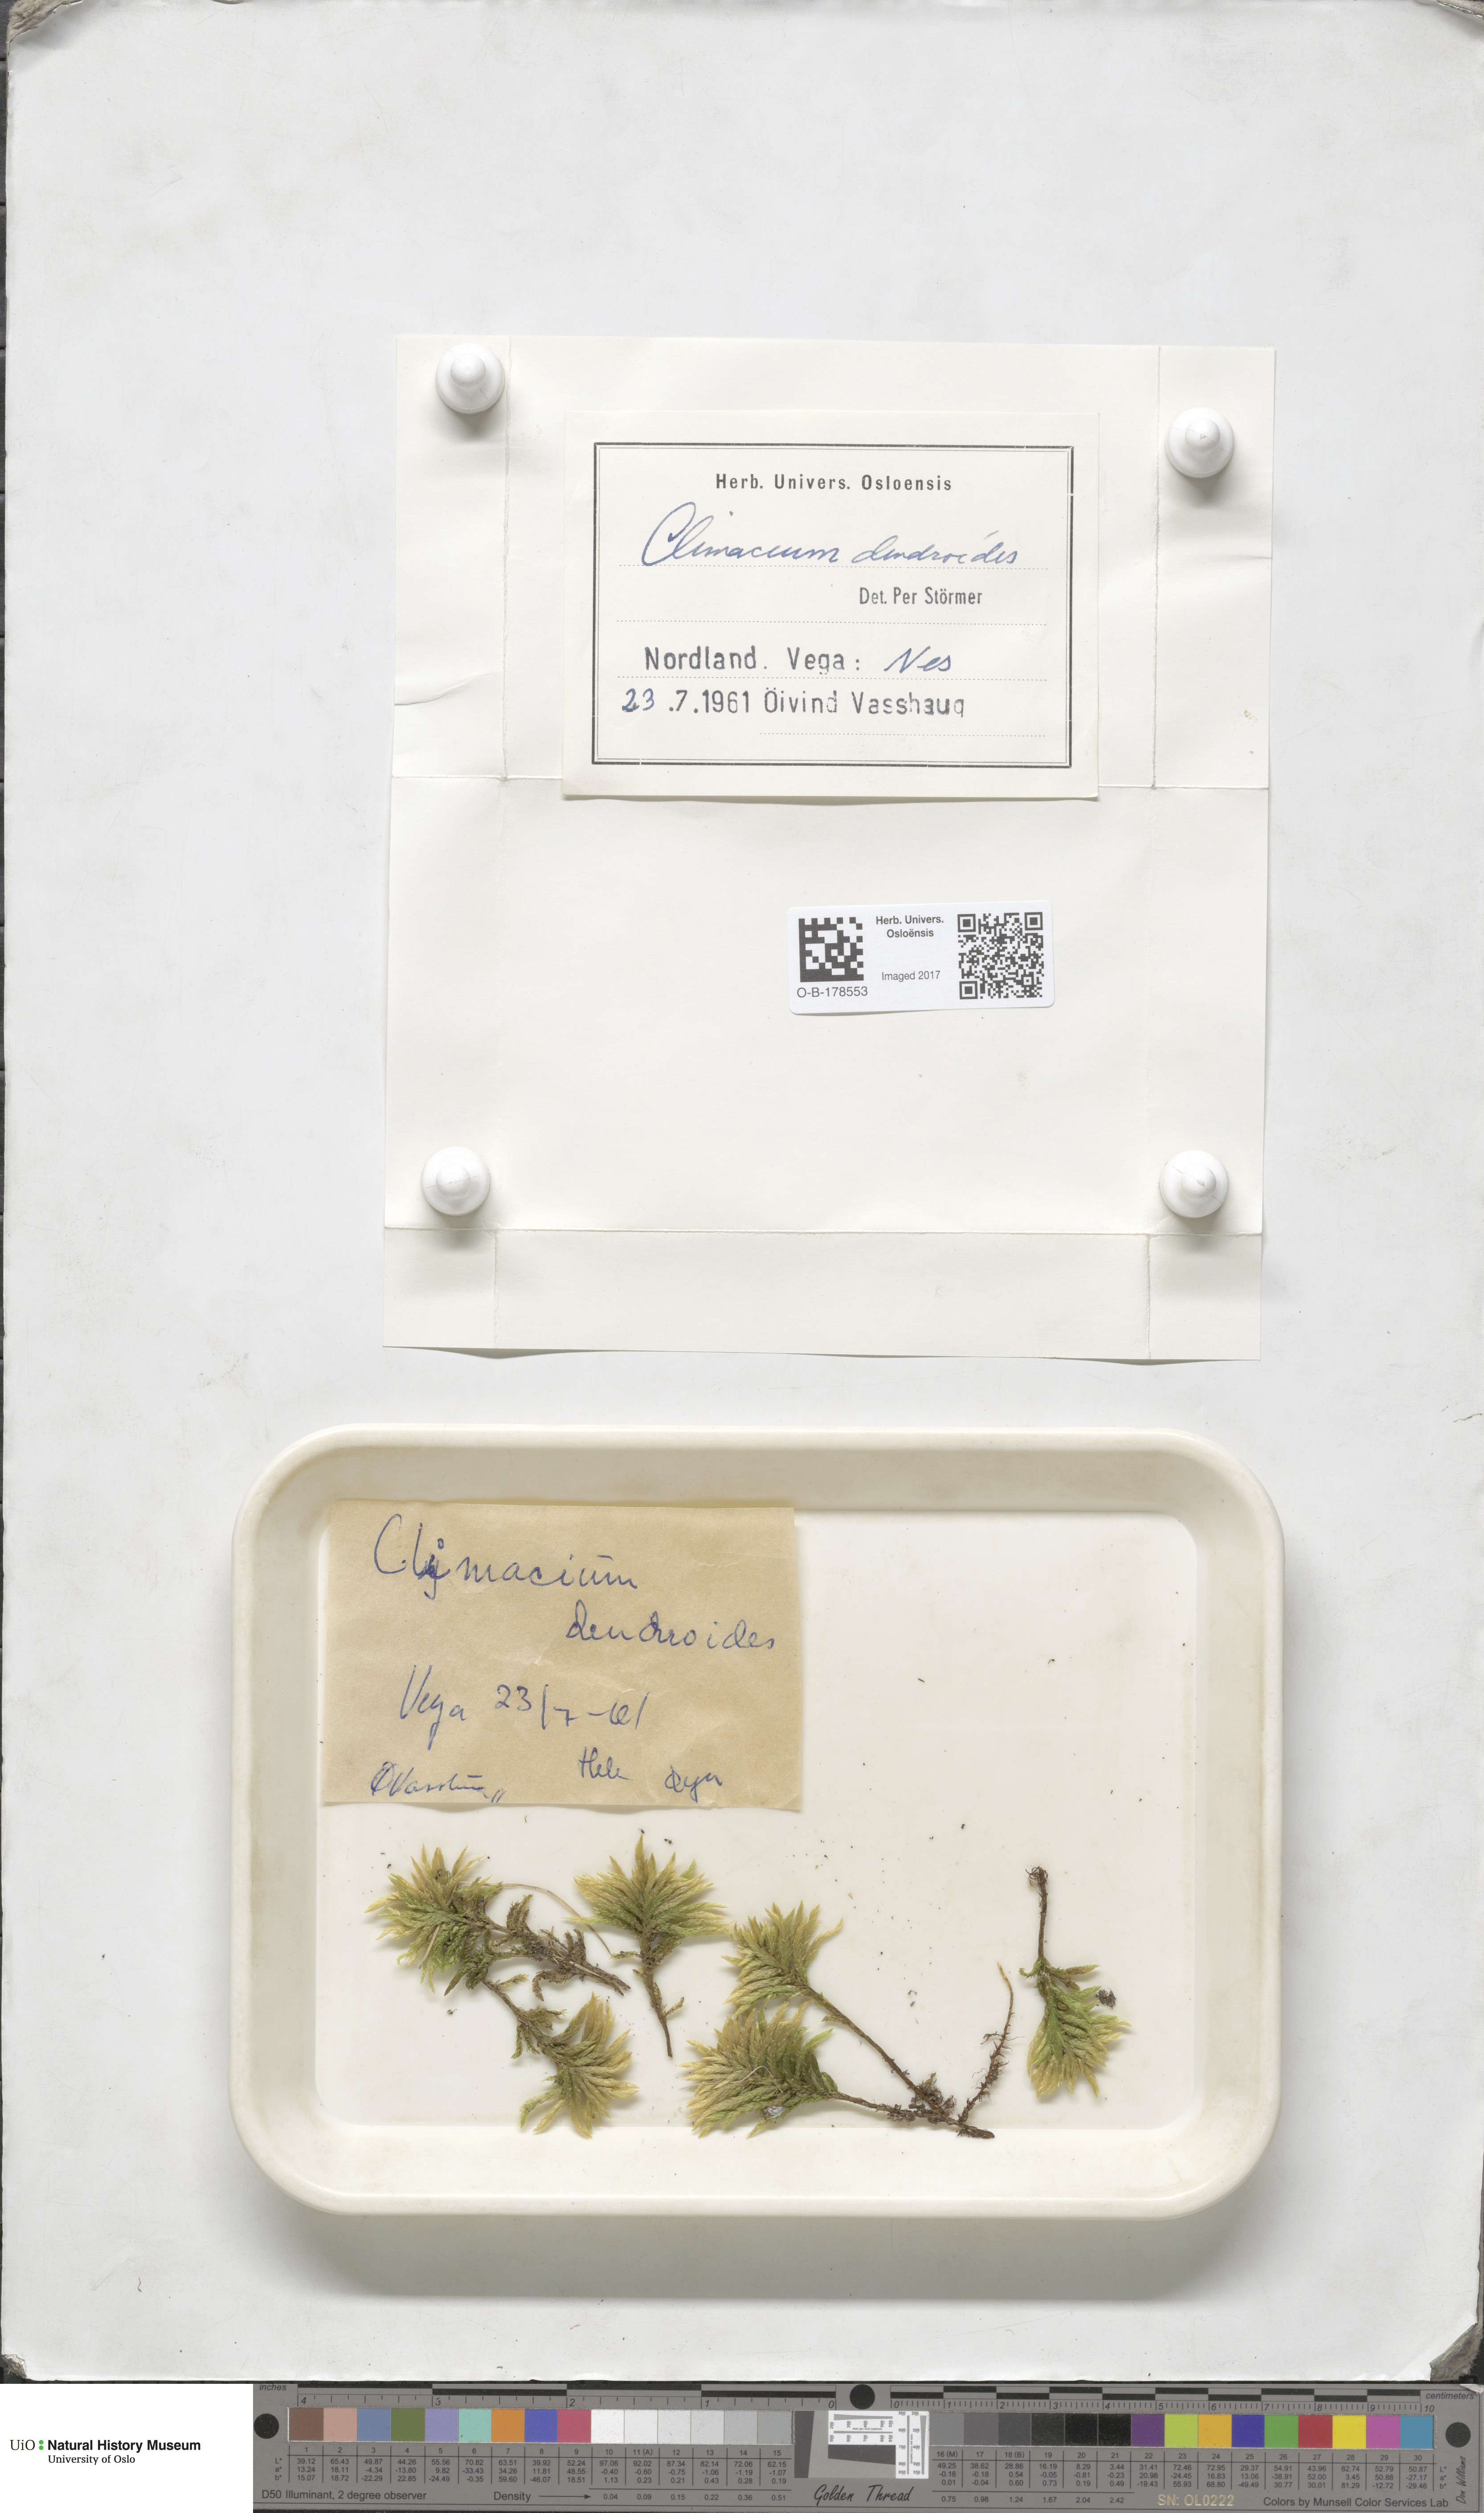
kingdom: Plantae
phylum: Bryophyta
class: Bryopsida
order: Hypnales
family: Climaciaceae
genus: Climacium
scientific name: Climacium dendroides
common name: Northern tree moss
